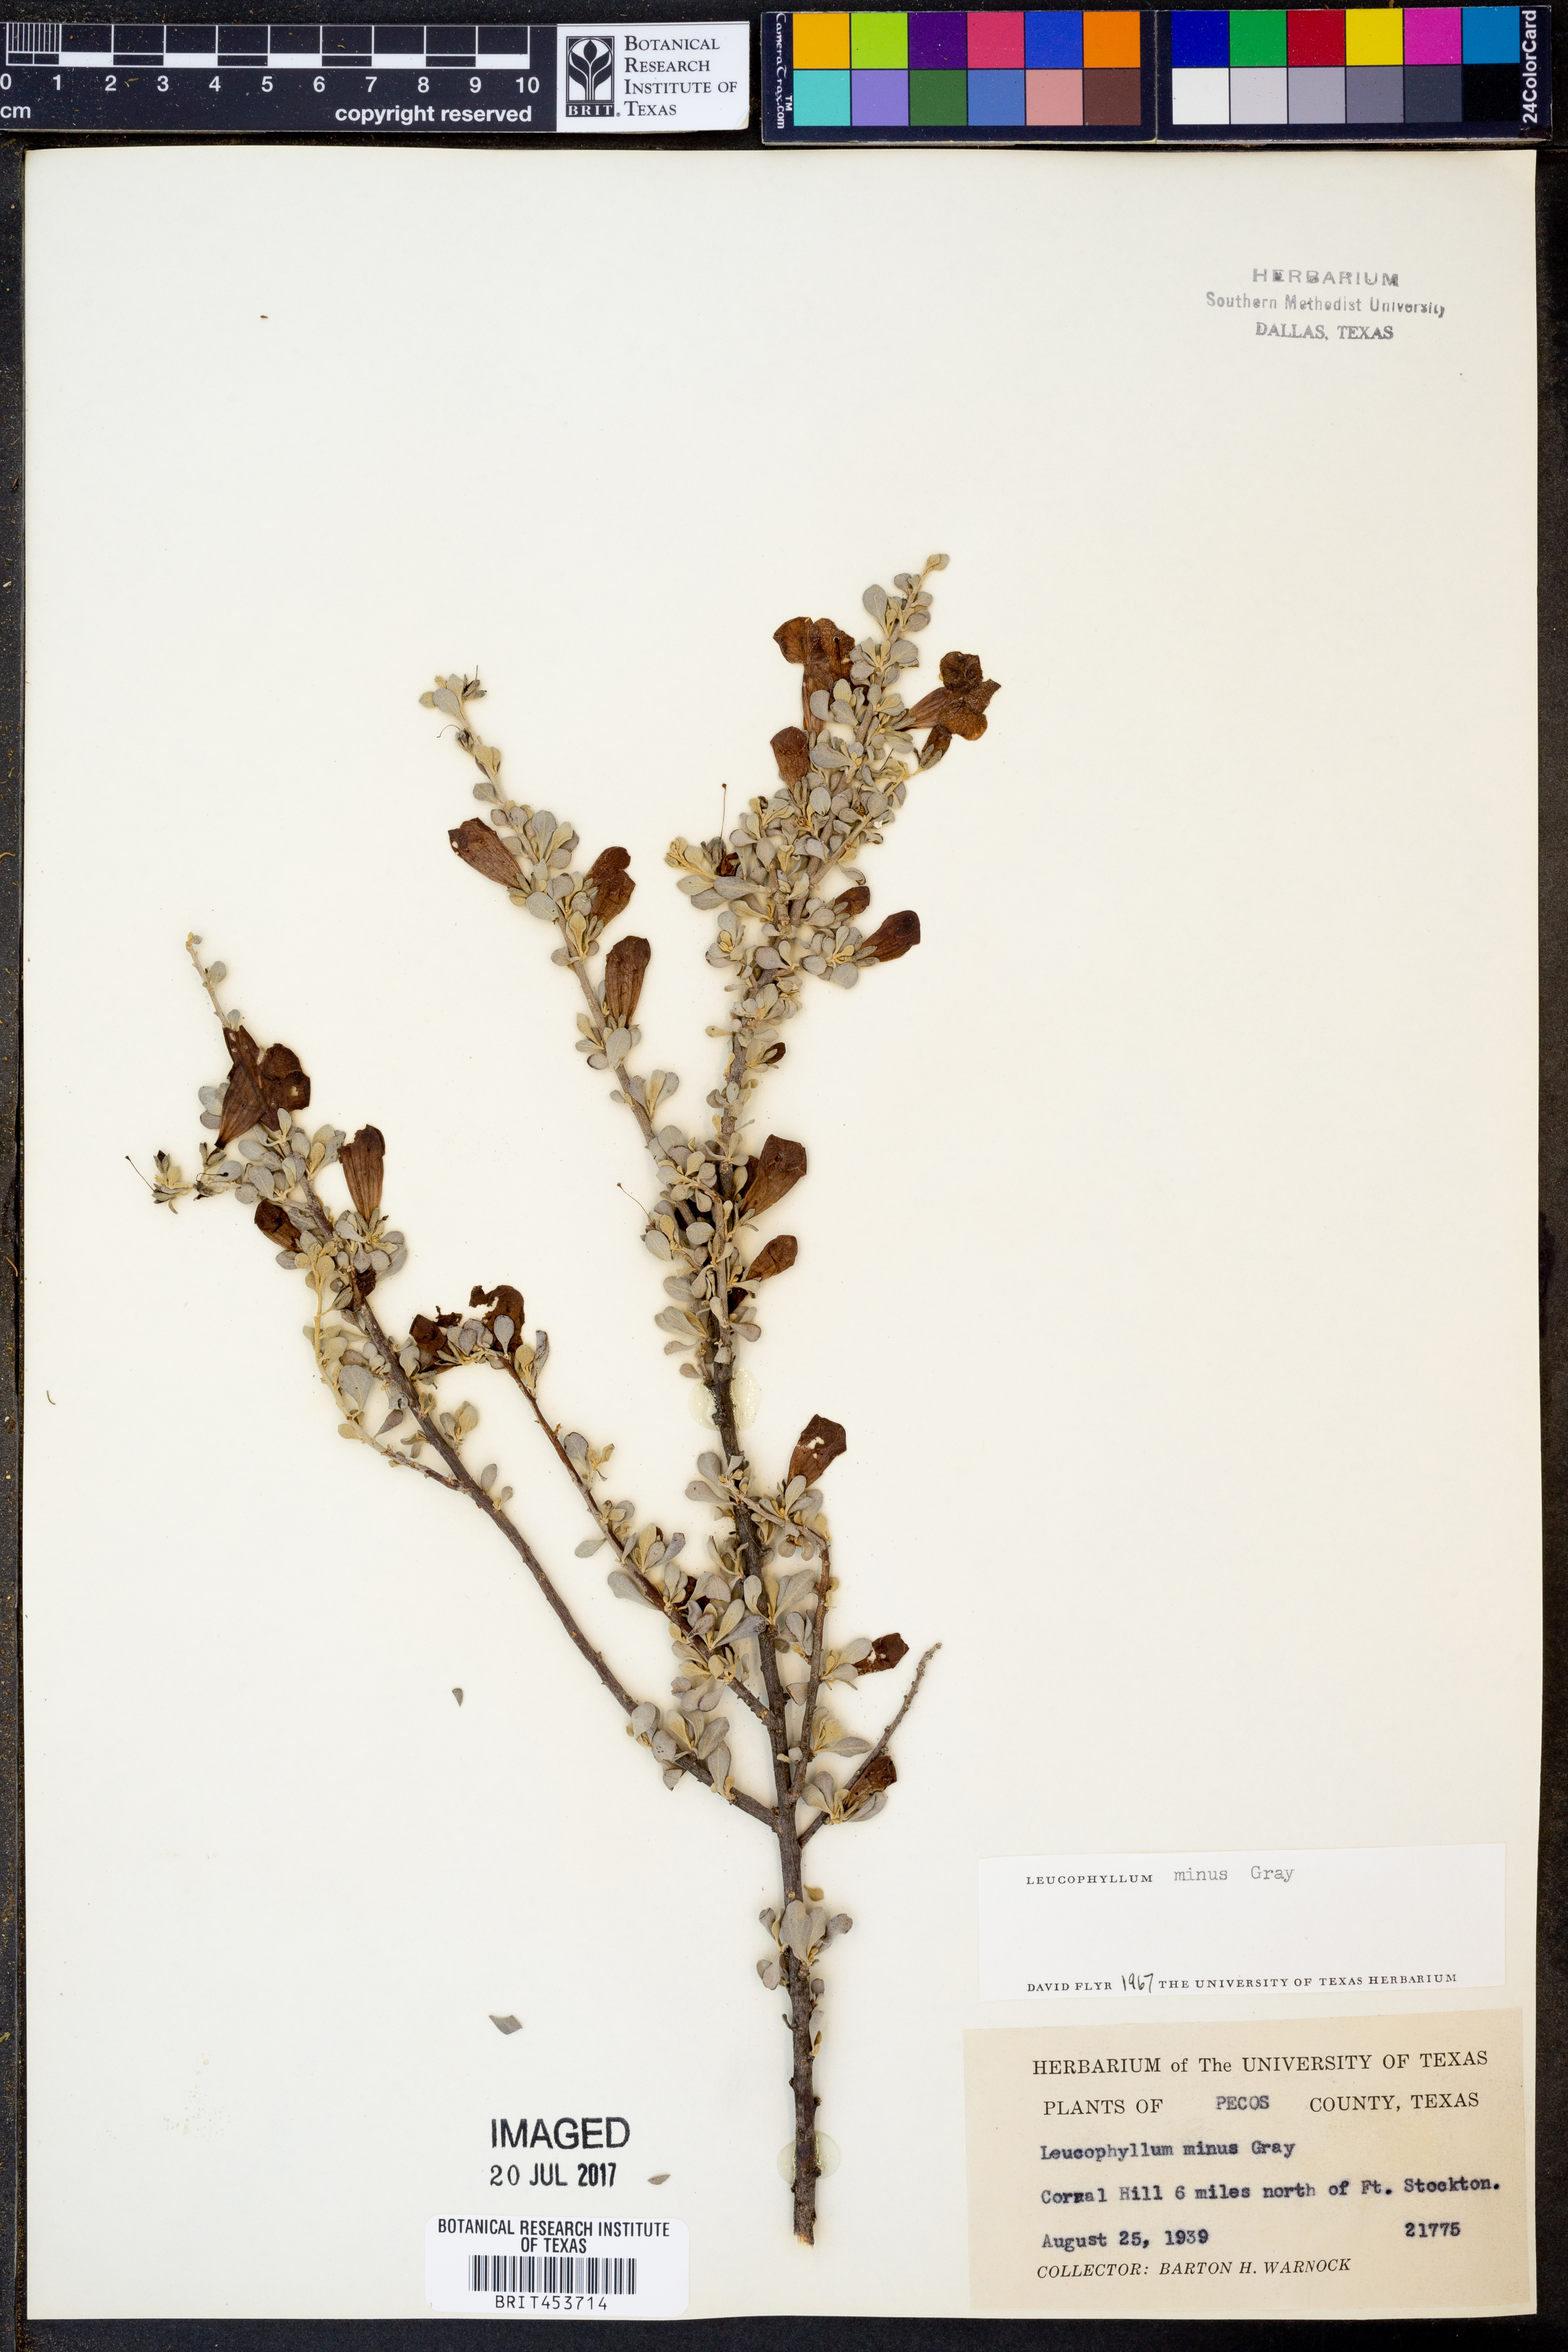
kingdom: Plantae
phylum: Tracheophyta
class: Magnoliopsida
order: Lamiales
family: Scrophulariaceae
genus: Leucophyllum
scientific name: Leucophyllum minus
